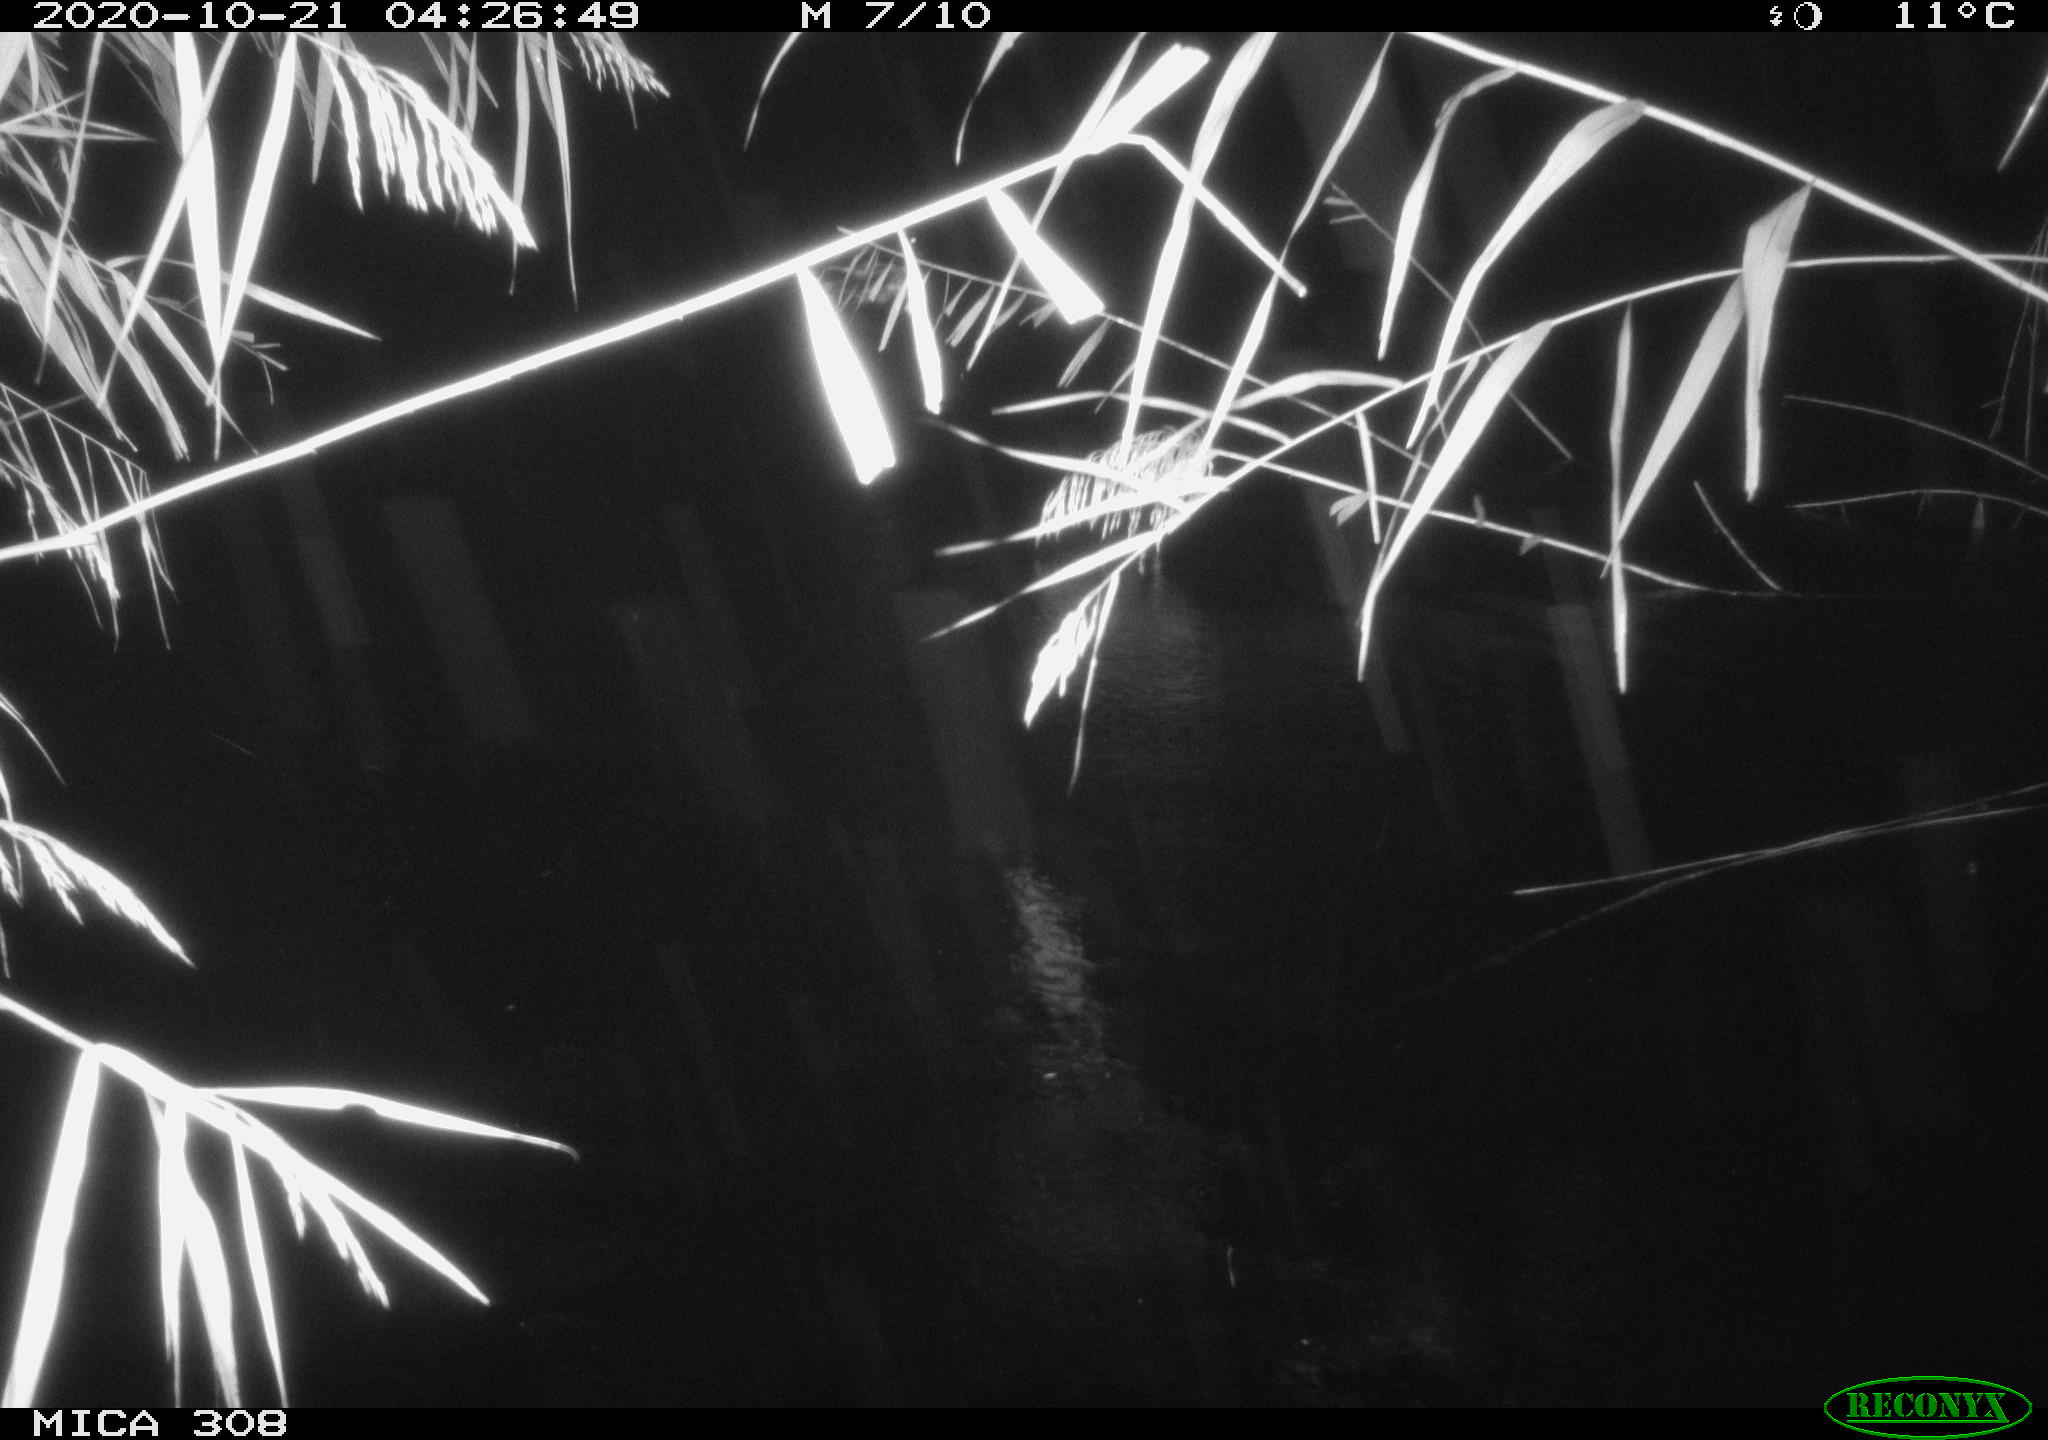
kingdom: Animalia
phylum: Chordata
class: Aves
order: Anseriformes
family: Anatidae
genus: Anas
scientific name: Anas platyrhynchos
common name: Mallard
